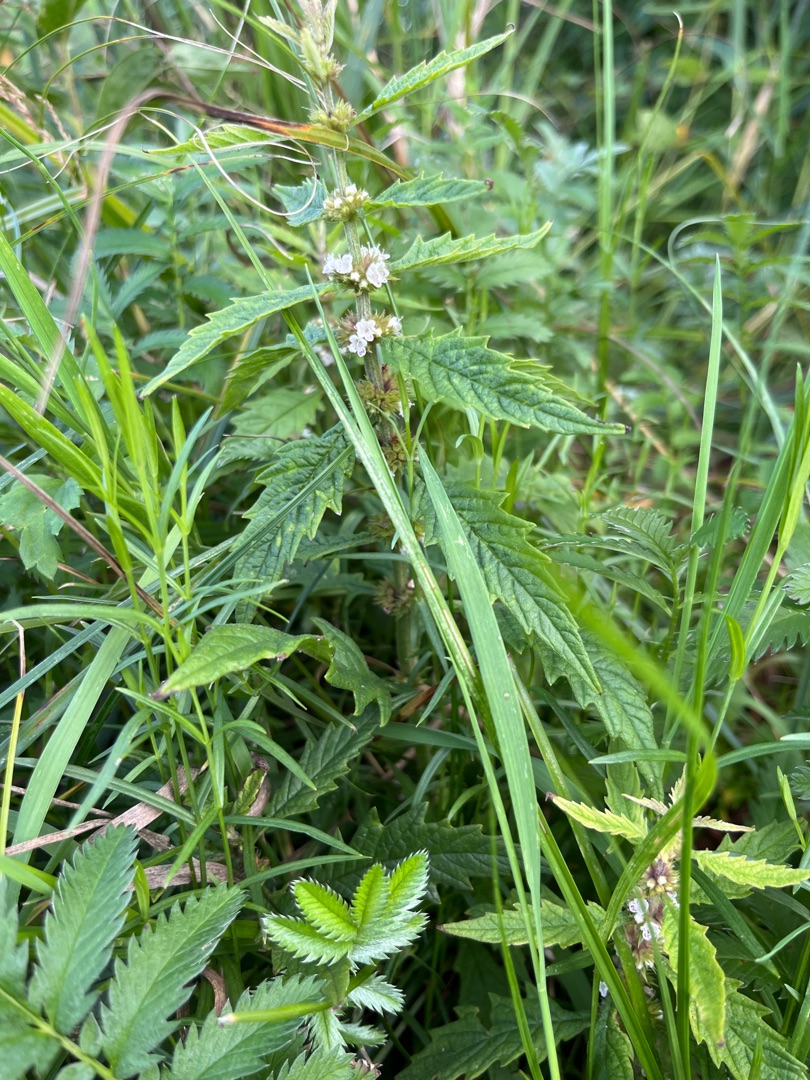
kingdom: Plantae
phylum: Tracheophyta
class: Magnoliopsida
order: Lamiales
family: Lamiaceae
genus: Lycopus
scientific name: Lycopus europaeus
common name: Sværtevæld
